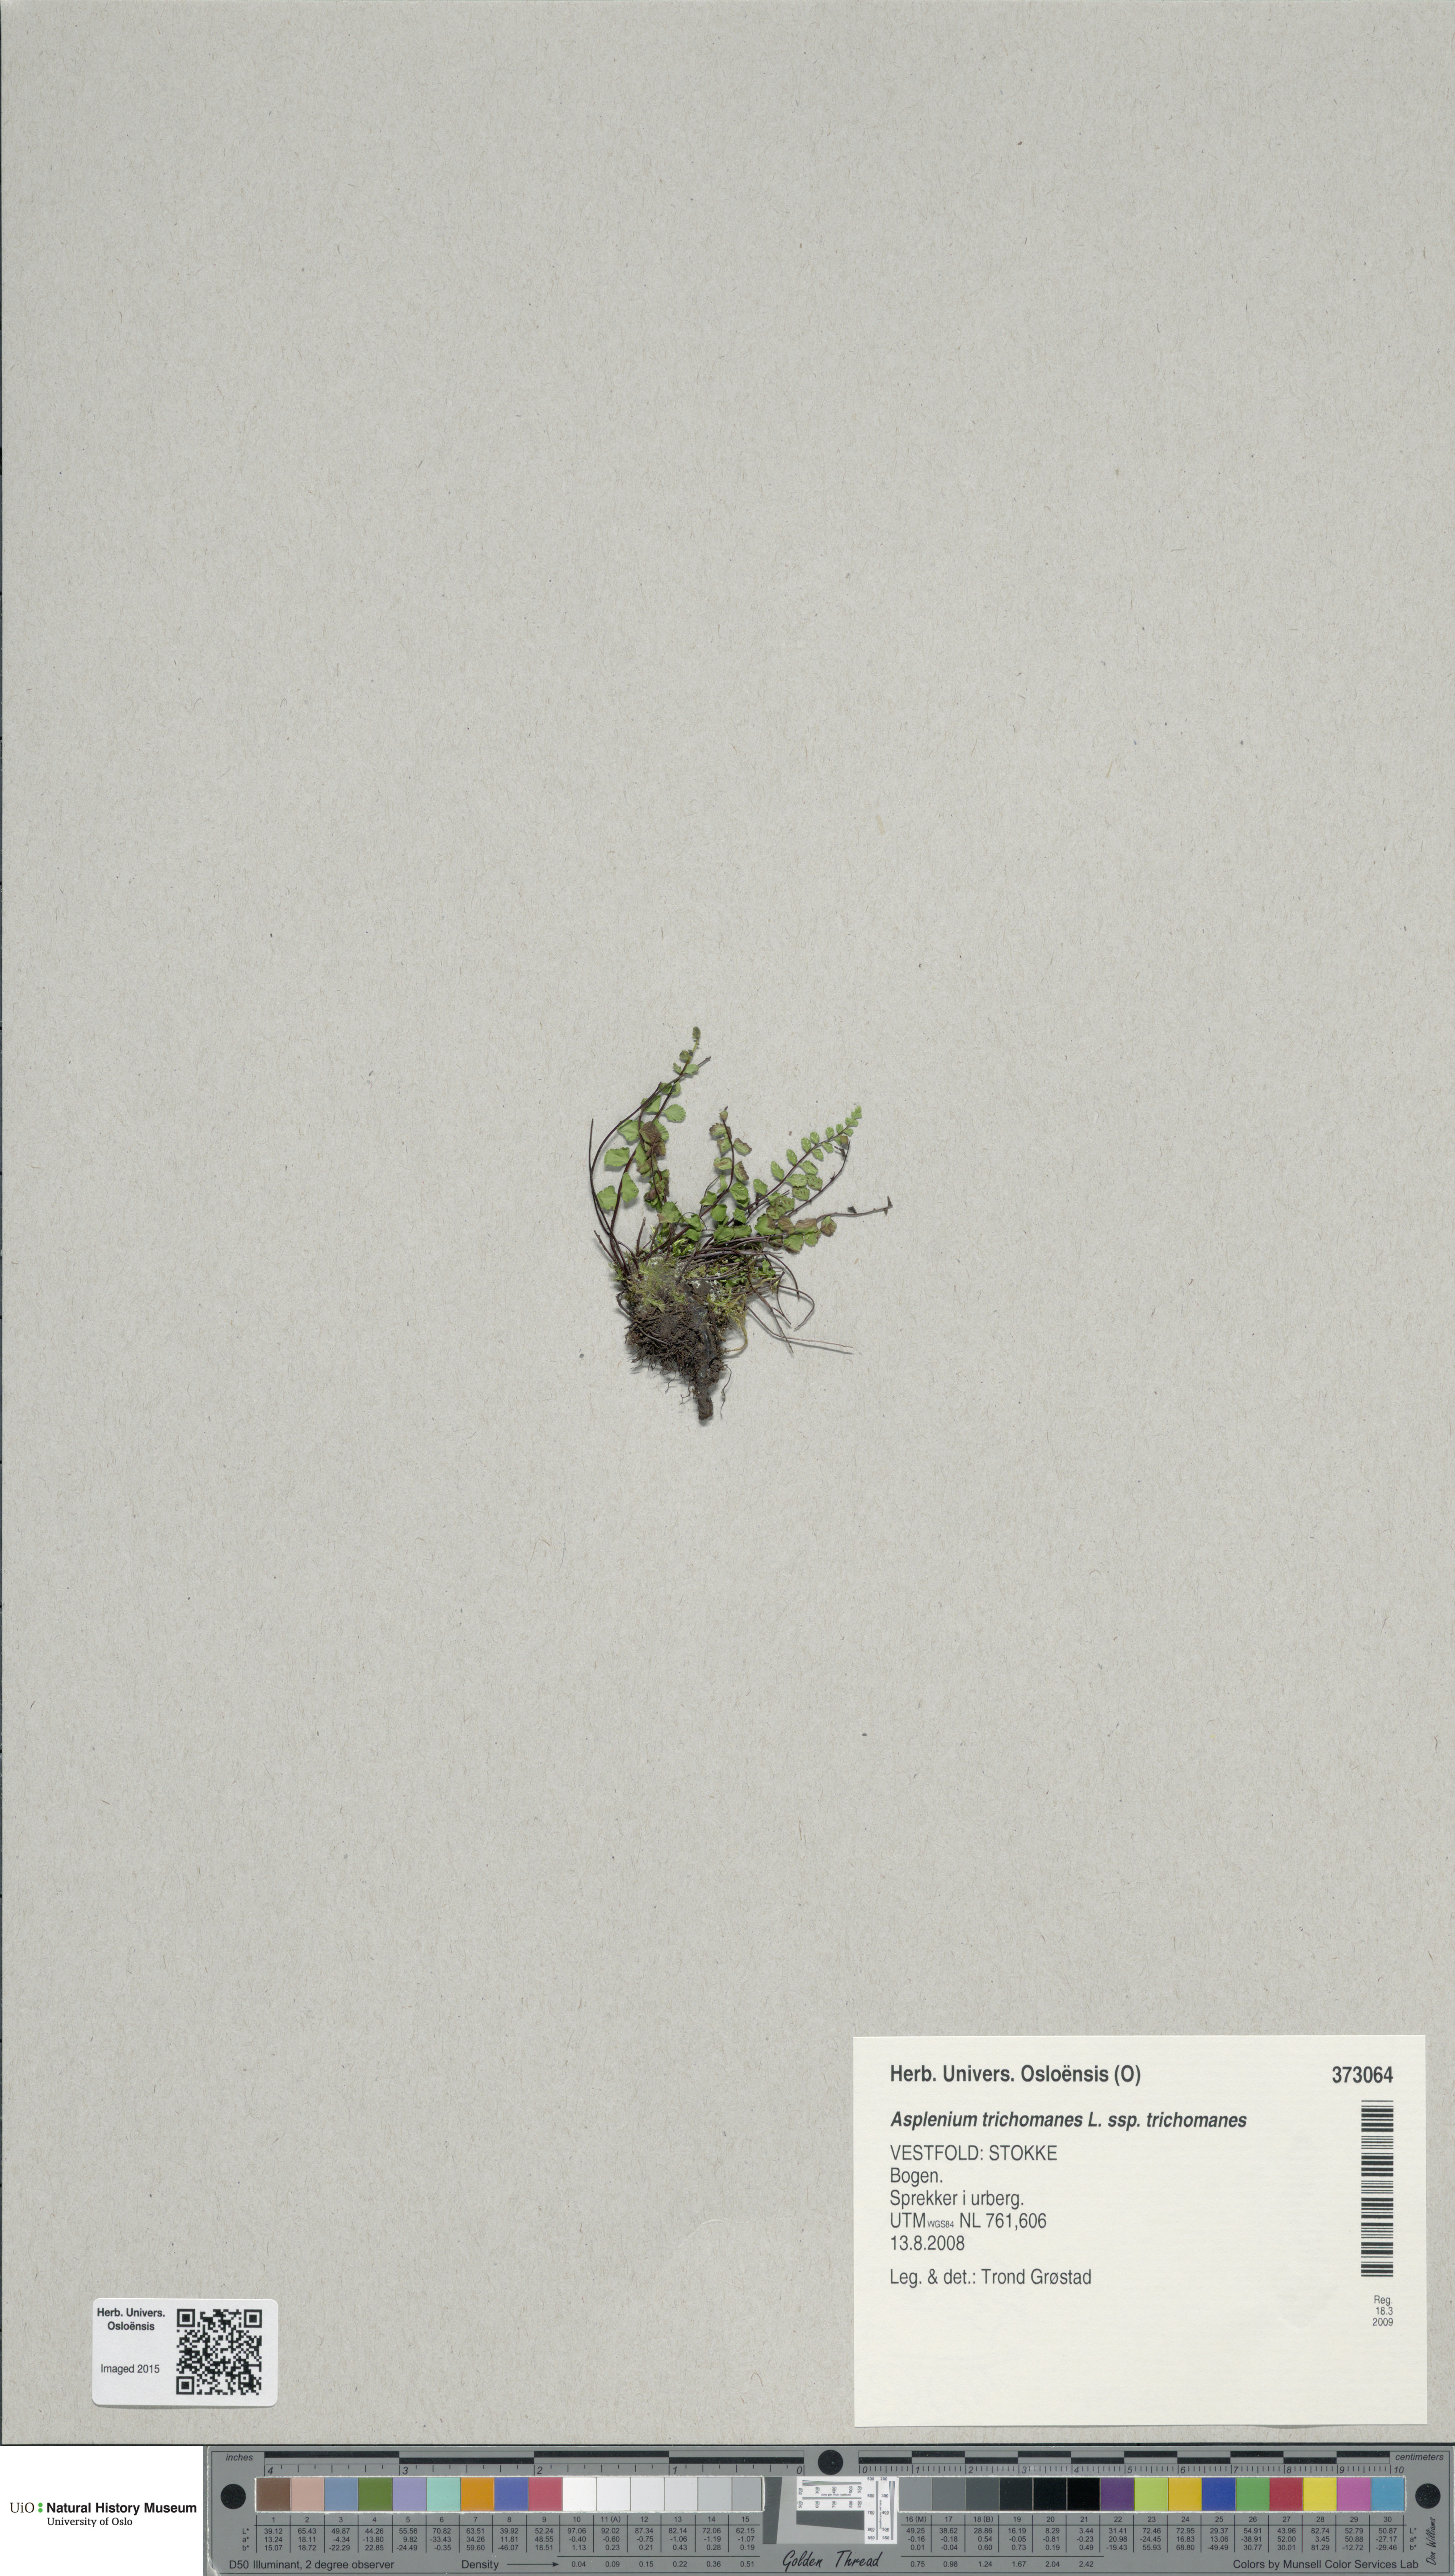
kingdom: Plantae
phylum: Tracheophyta
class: Polypodiopsida
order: Polypodiales
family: Aspleniaceae
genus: Asplenium
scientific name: Asplenium trichomanes
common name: Maidenhair spleenwort
